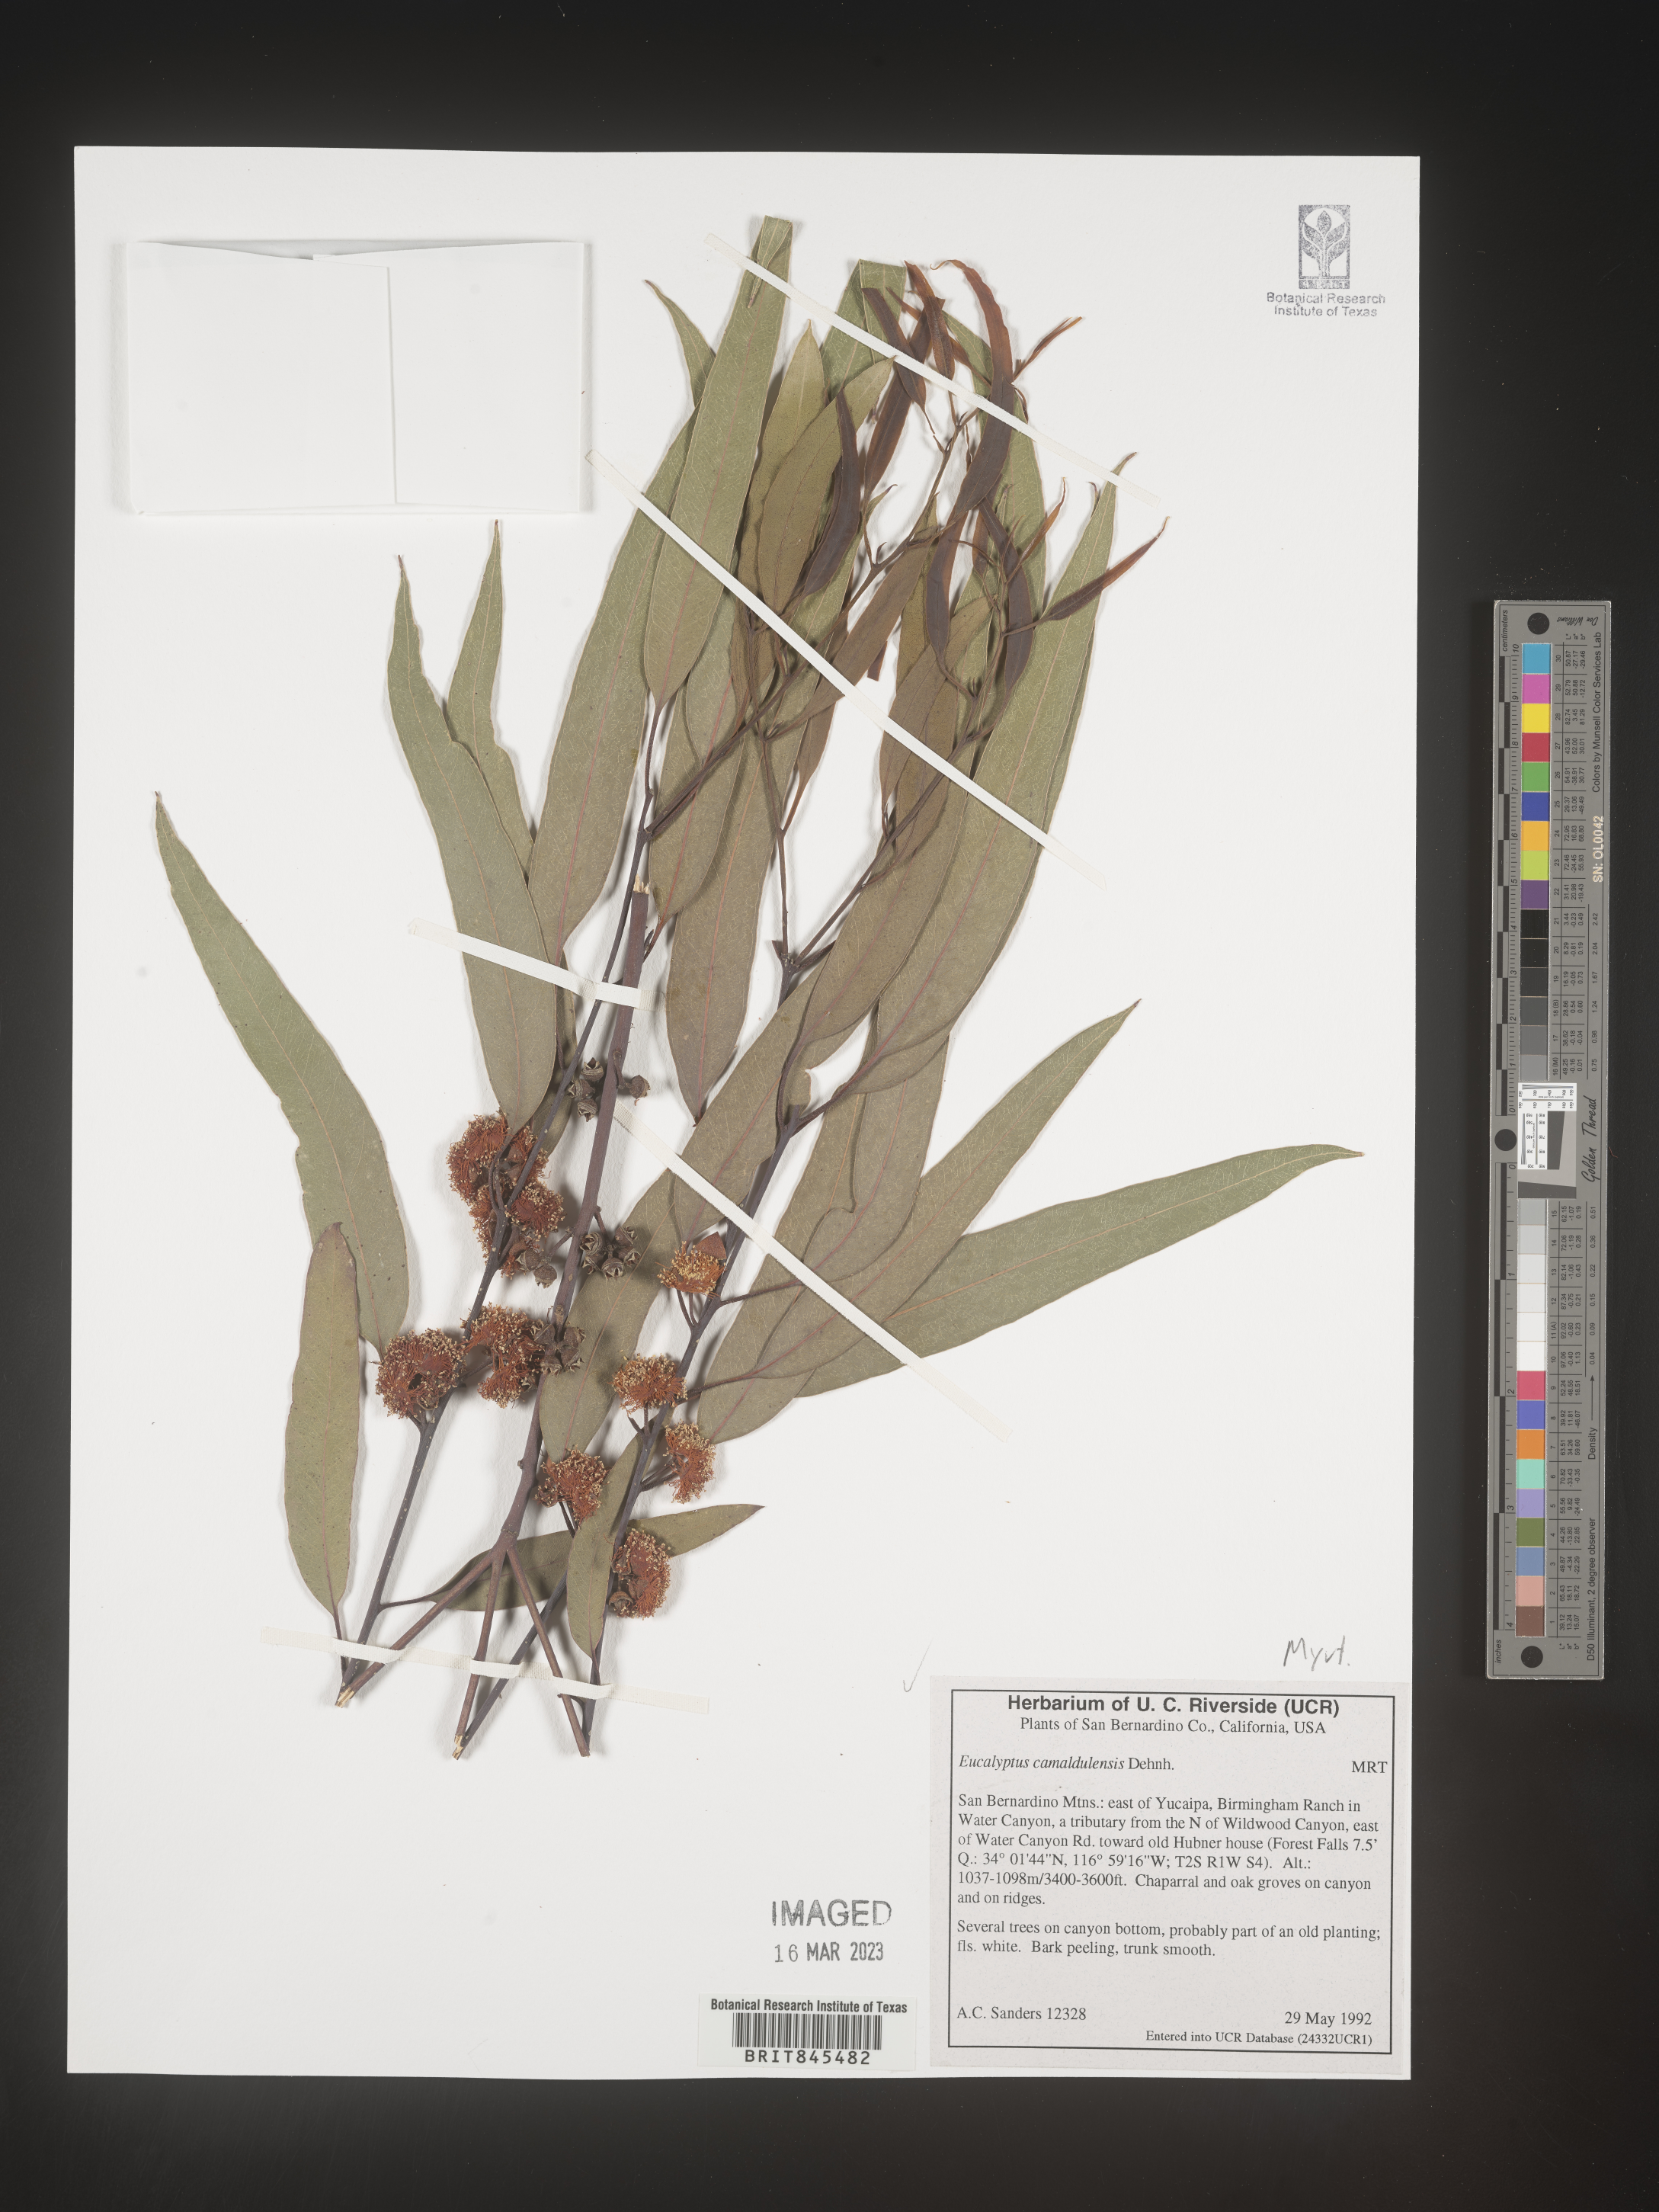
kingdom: Plantae
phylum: Tracheophyta
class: Magnoliopsida
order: Myrtales
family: Myrtaceae
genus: Eucalyptus
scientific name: Eucalyptus
